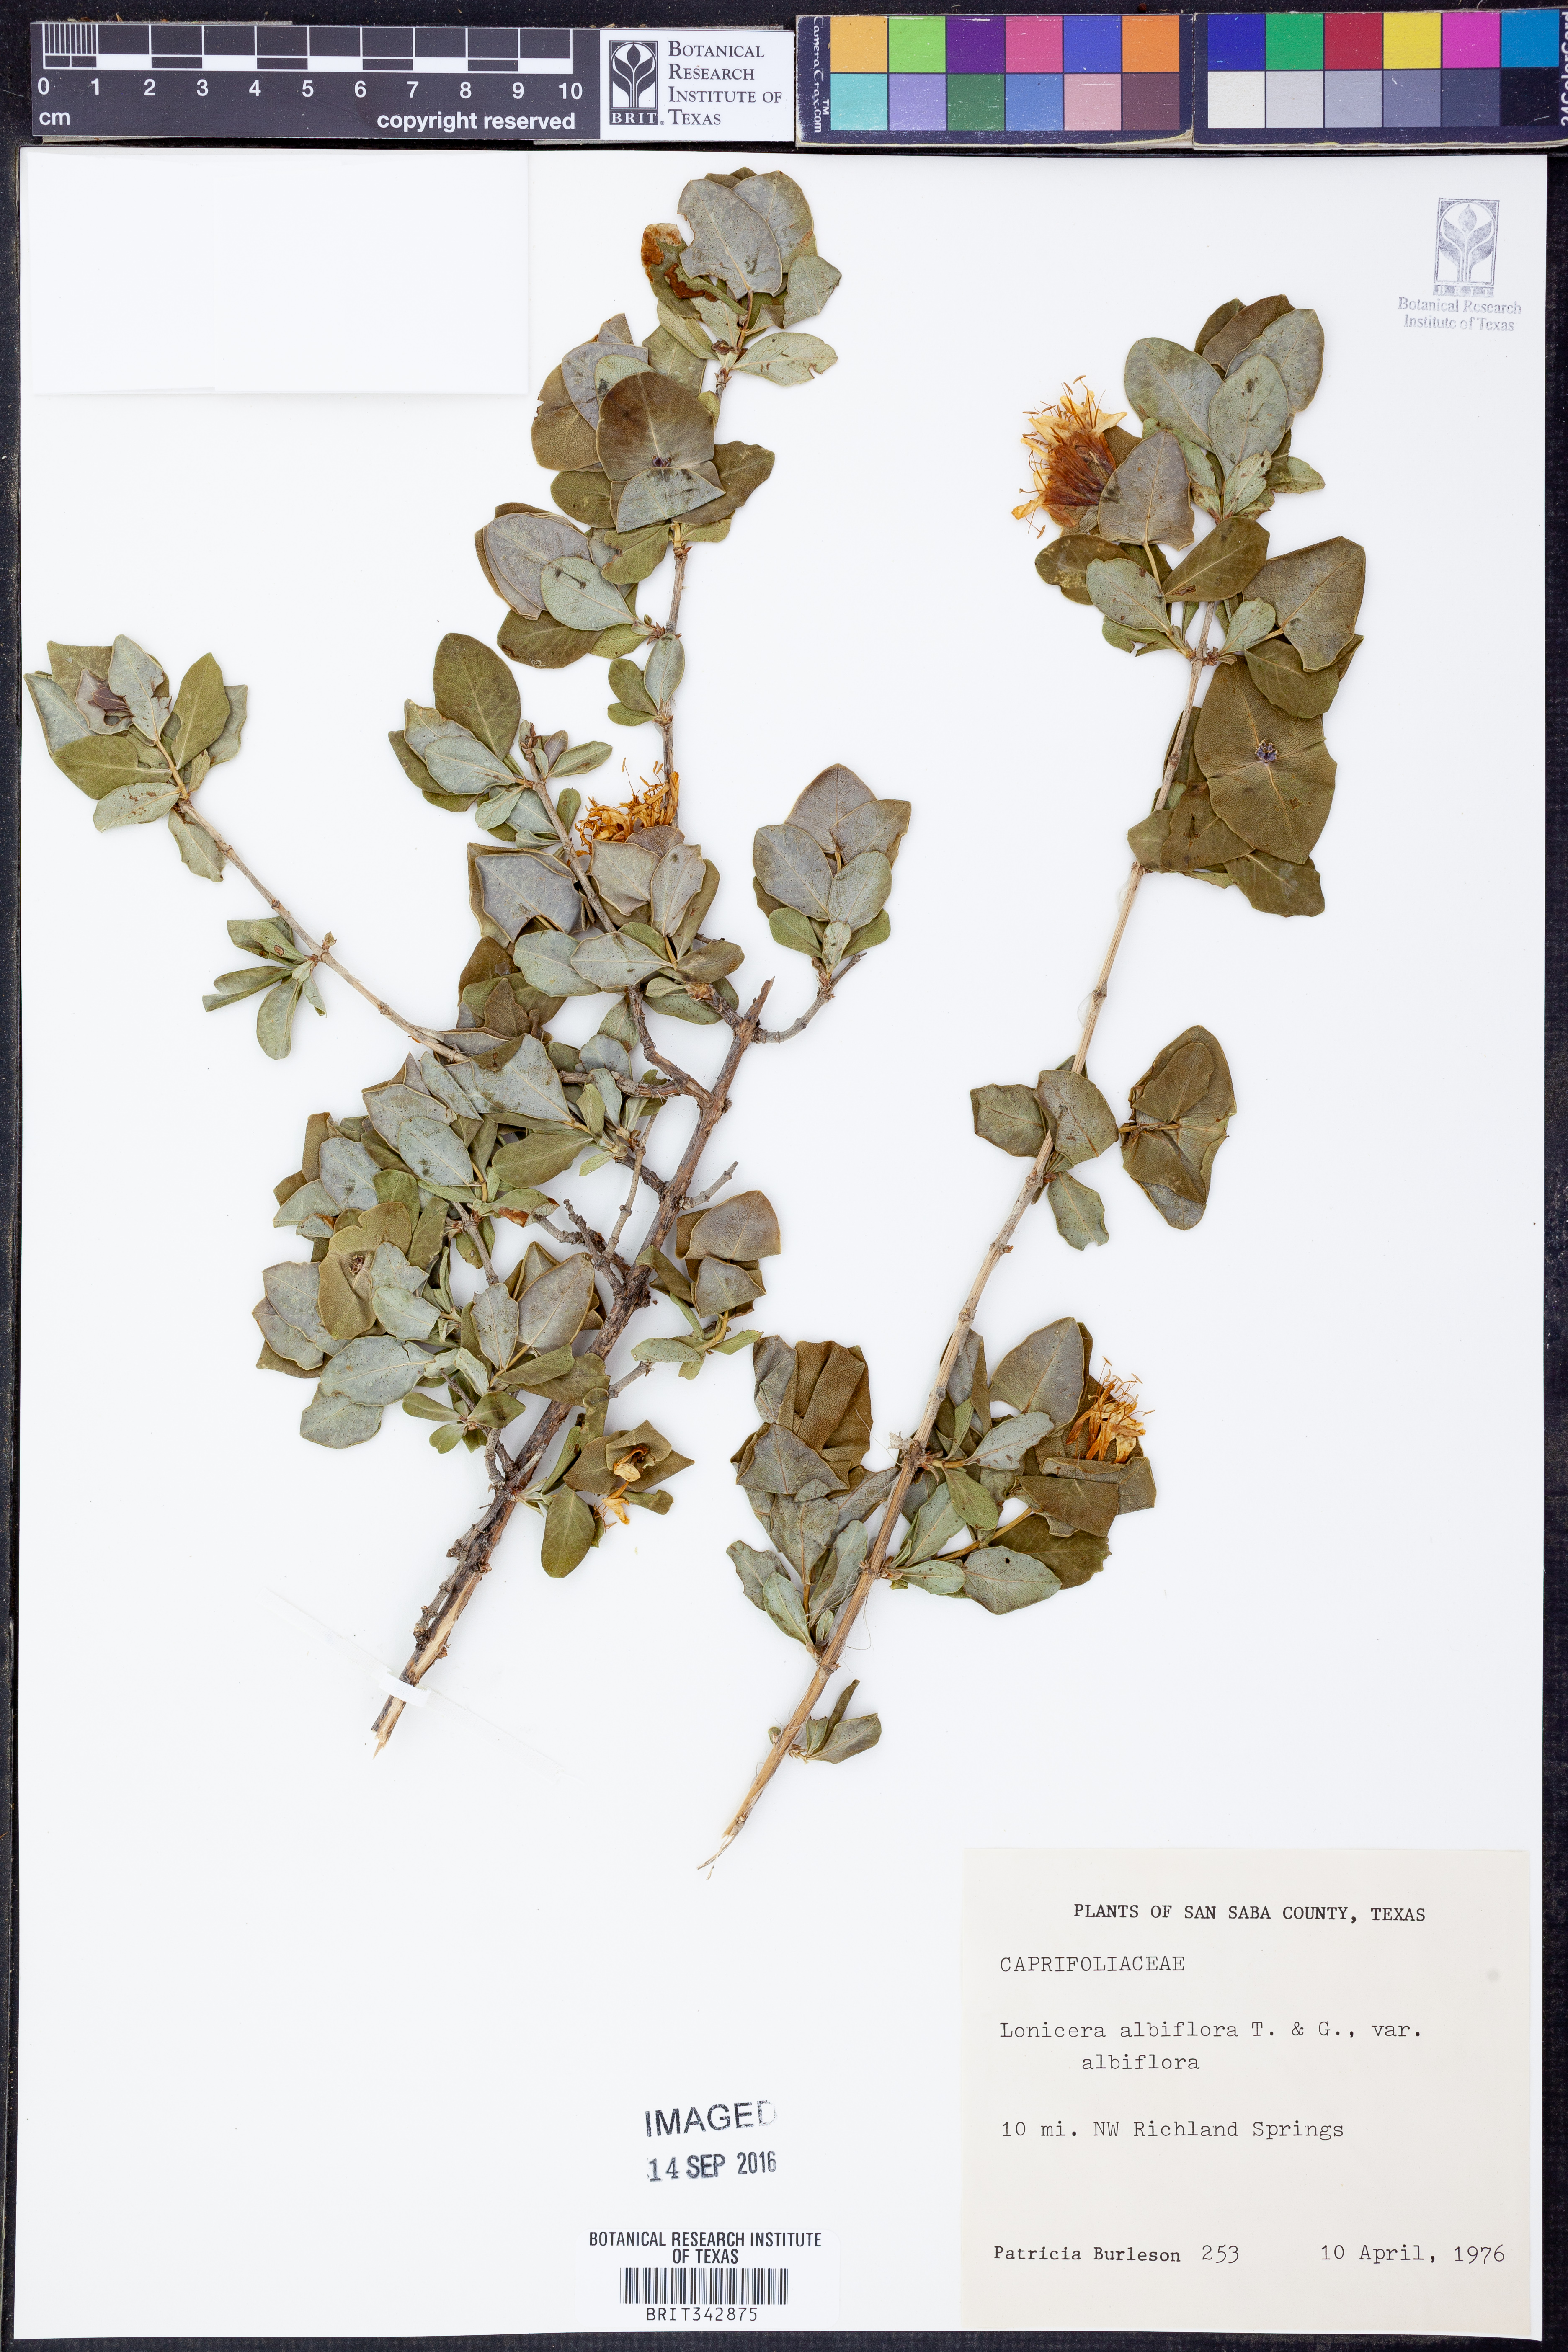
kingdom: Plantae
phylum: Tracheophyta
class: Magnoliopsida
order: Dipsacales
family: Caprifoliaceae
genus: Lonicera
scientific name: Lonicera albiflora
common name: White honeysuckle
